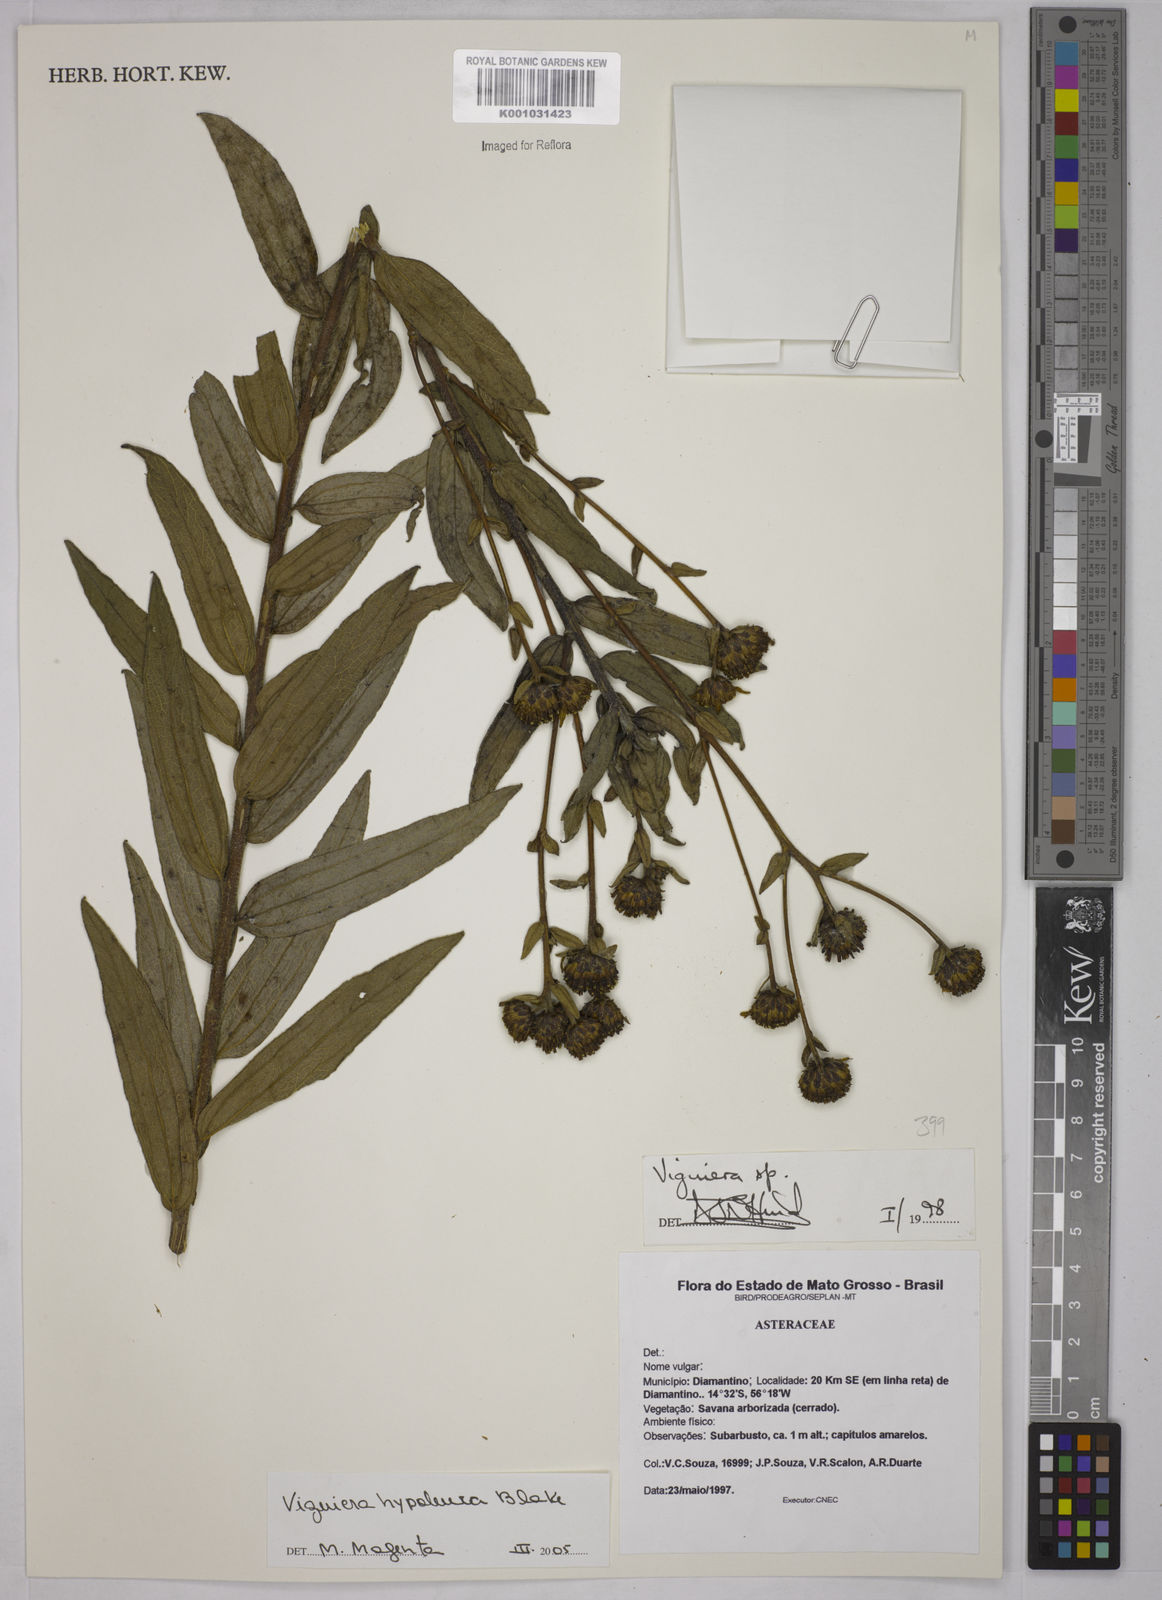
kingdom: Plantae
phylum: Tracheophyta
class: Magnoliopsida
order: Asterales
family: Asteraceae
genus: Aldama
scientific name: Aldama hypoleuca
